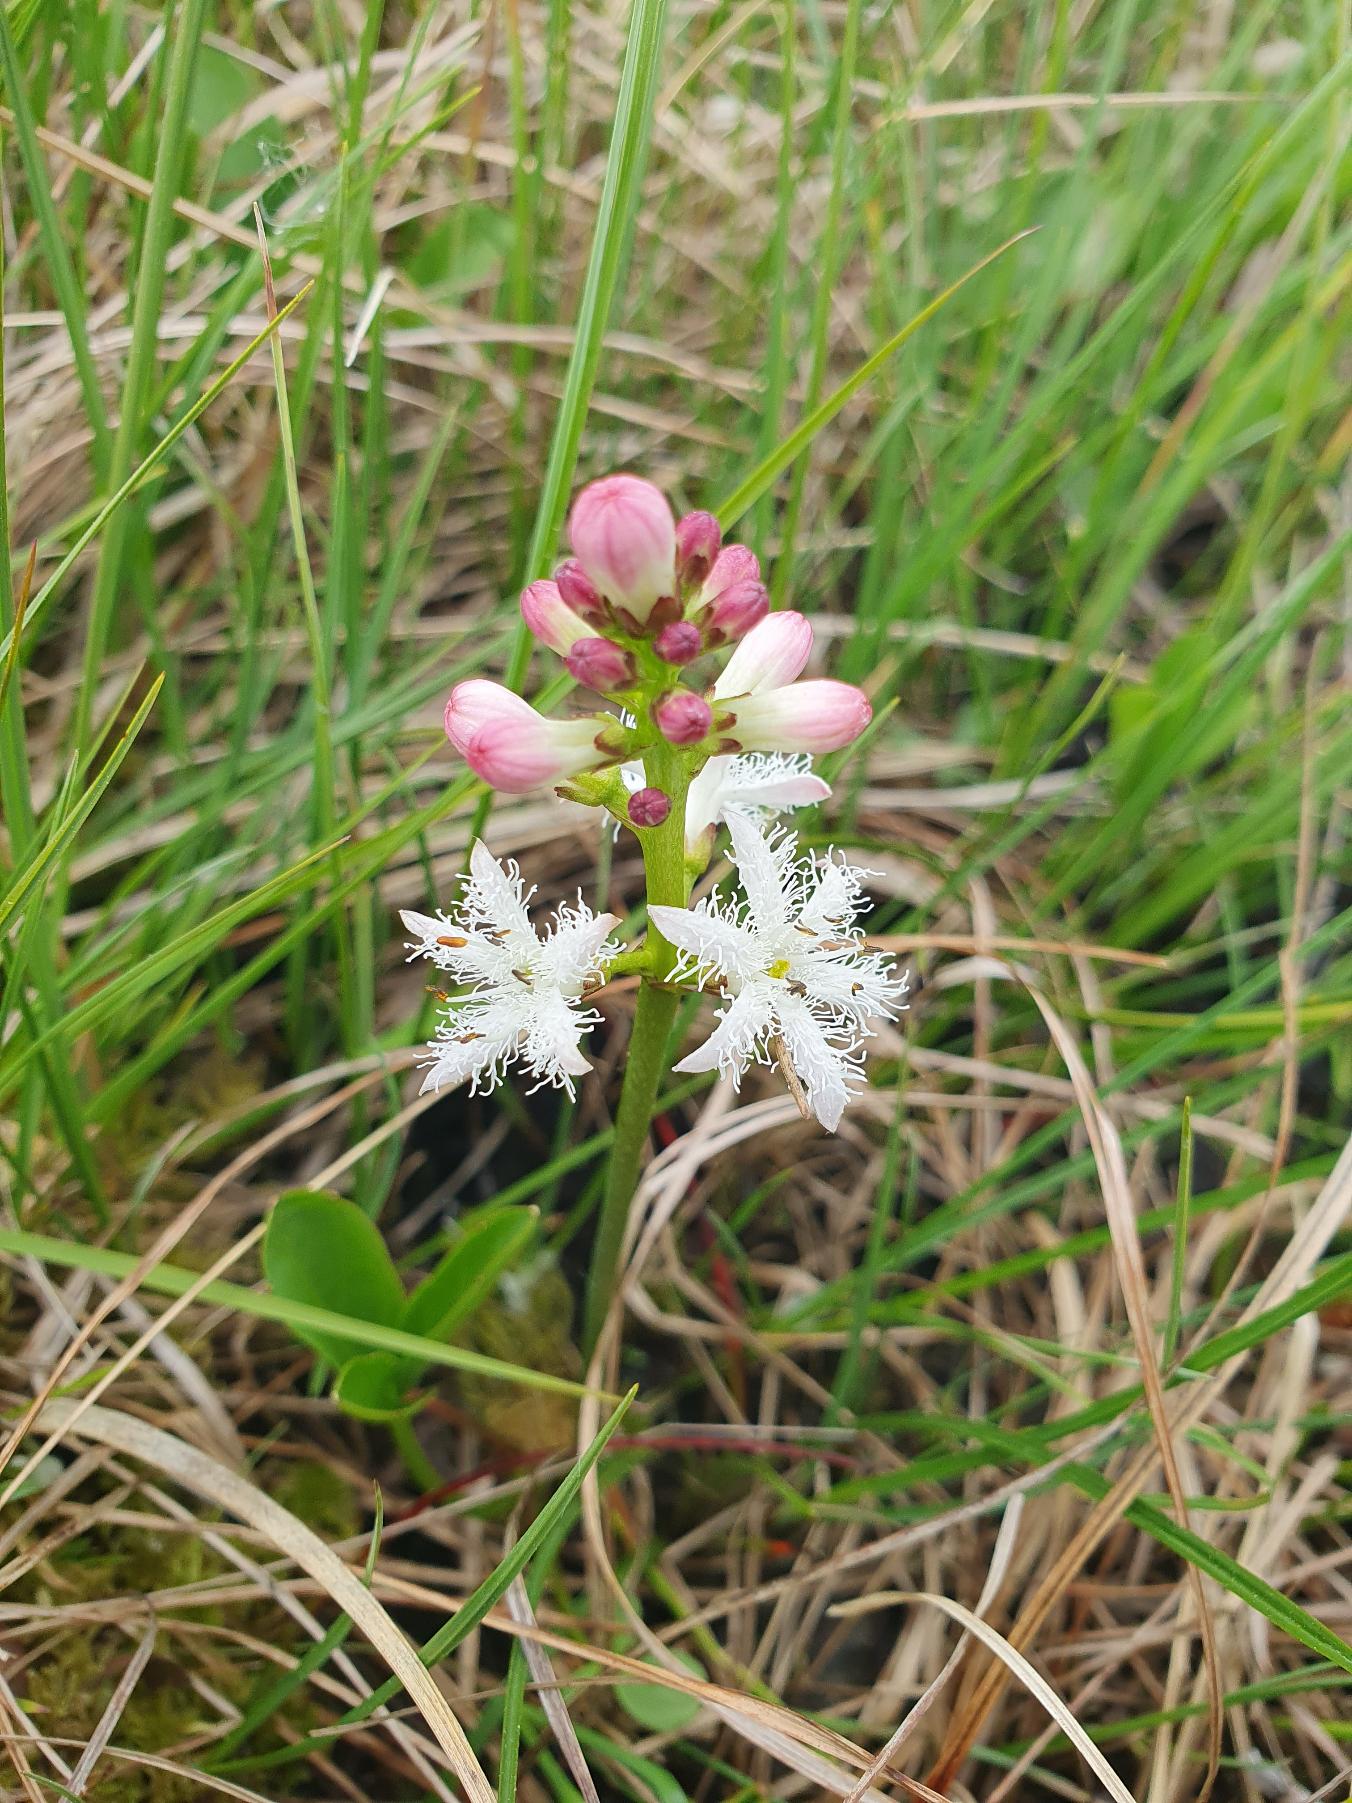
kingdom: Plantae
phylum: Tracheophyta
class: Magnoliopsida
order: Asterales
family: Menyanthaceae
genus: Menyanthes
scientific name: Menyanthes trifoliata
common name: Bukkeblad
